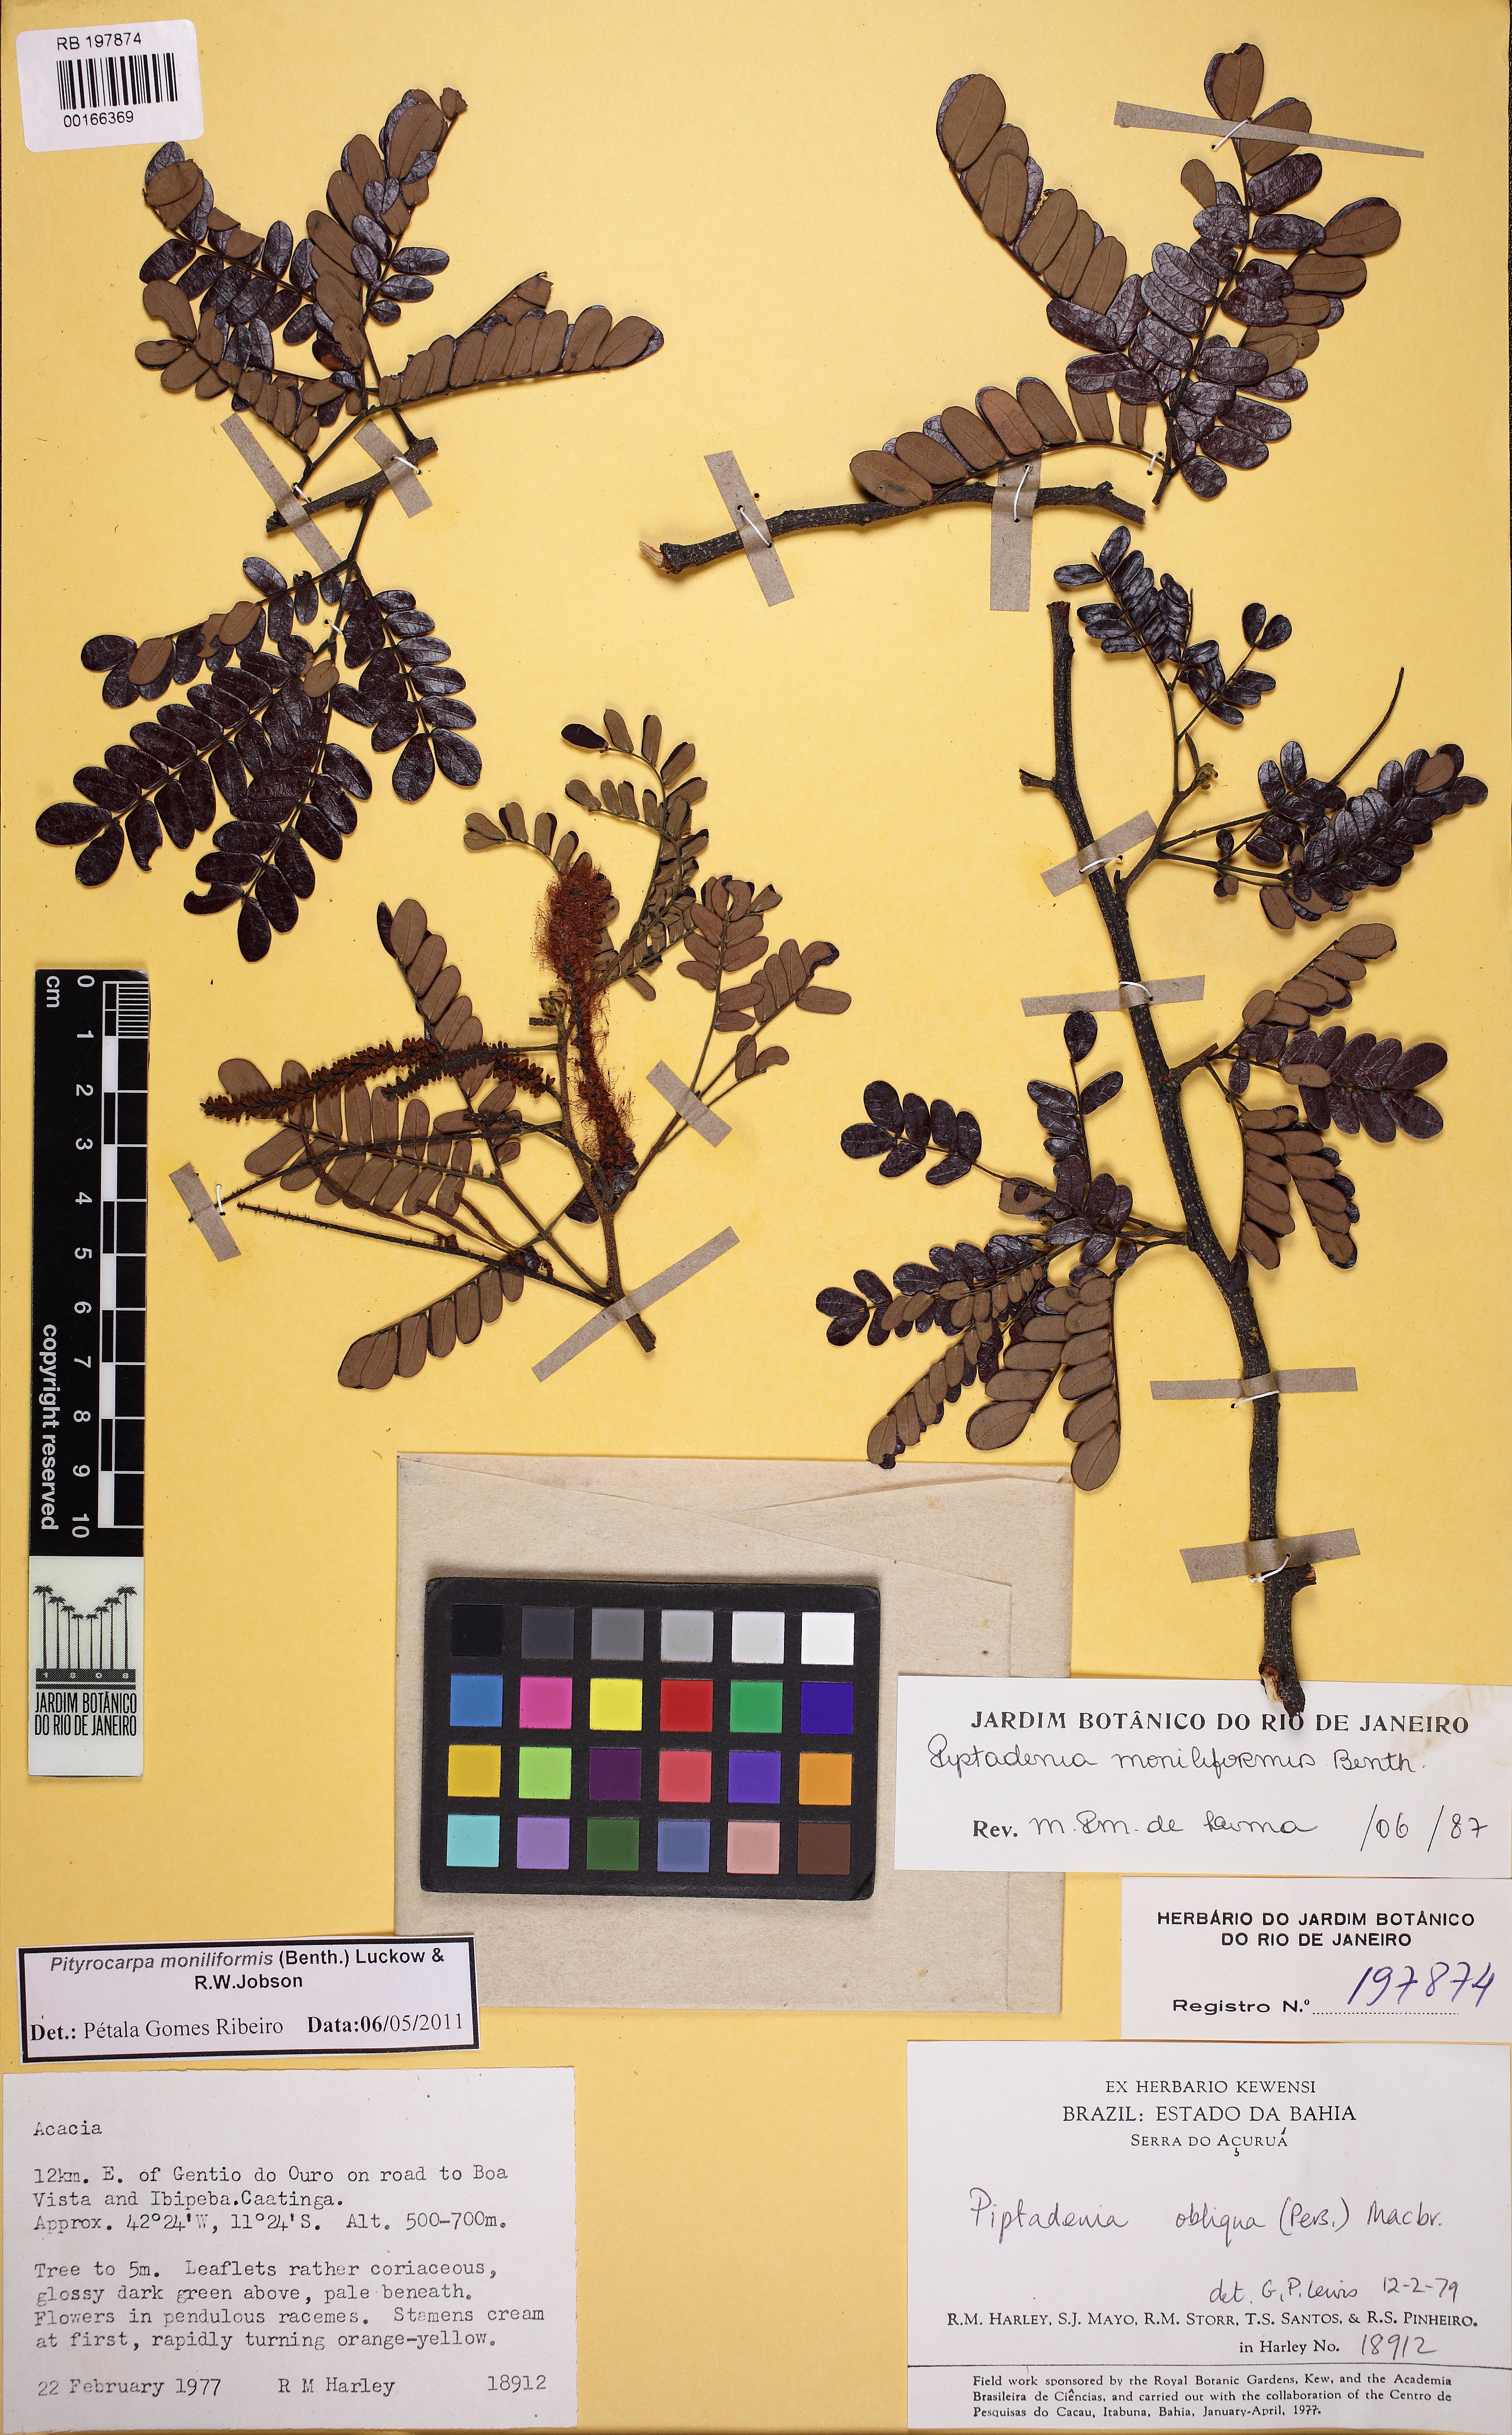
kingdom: Plantae
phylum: Tracheophyta
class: Magnoliopsida
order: Fabales
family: Fabaceae
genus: Pityrocarpa
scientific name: Pityrocarpa moniliformis
